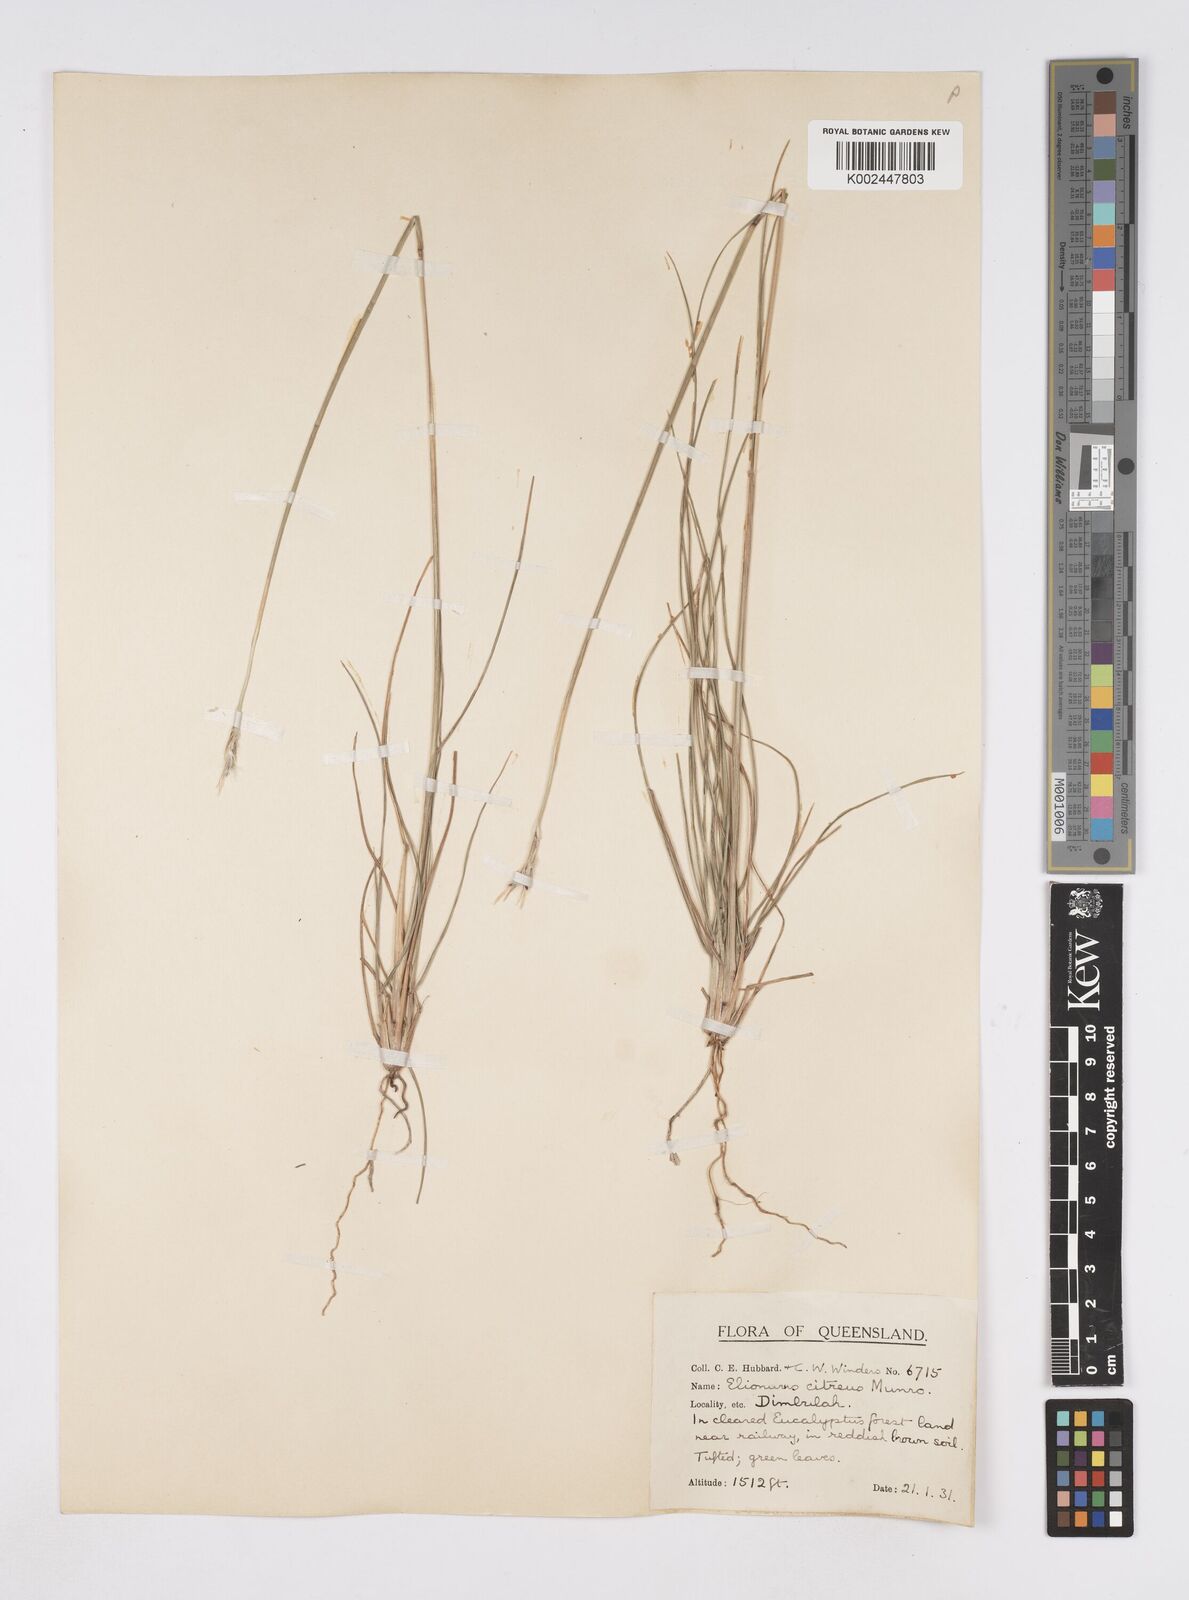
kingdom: Plantae
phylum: Tracheophyta
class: Liliopsida
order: Poales
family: Poaceae
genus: Elionurus
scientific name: Elionurus citreus
